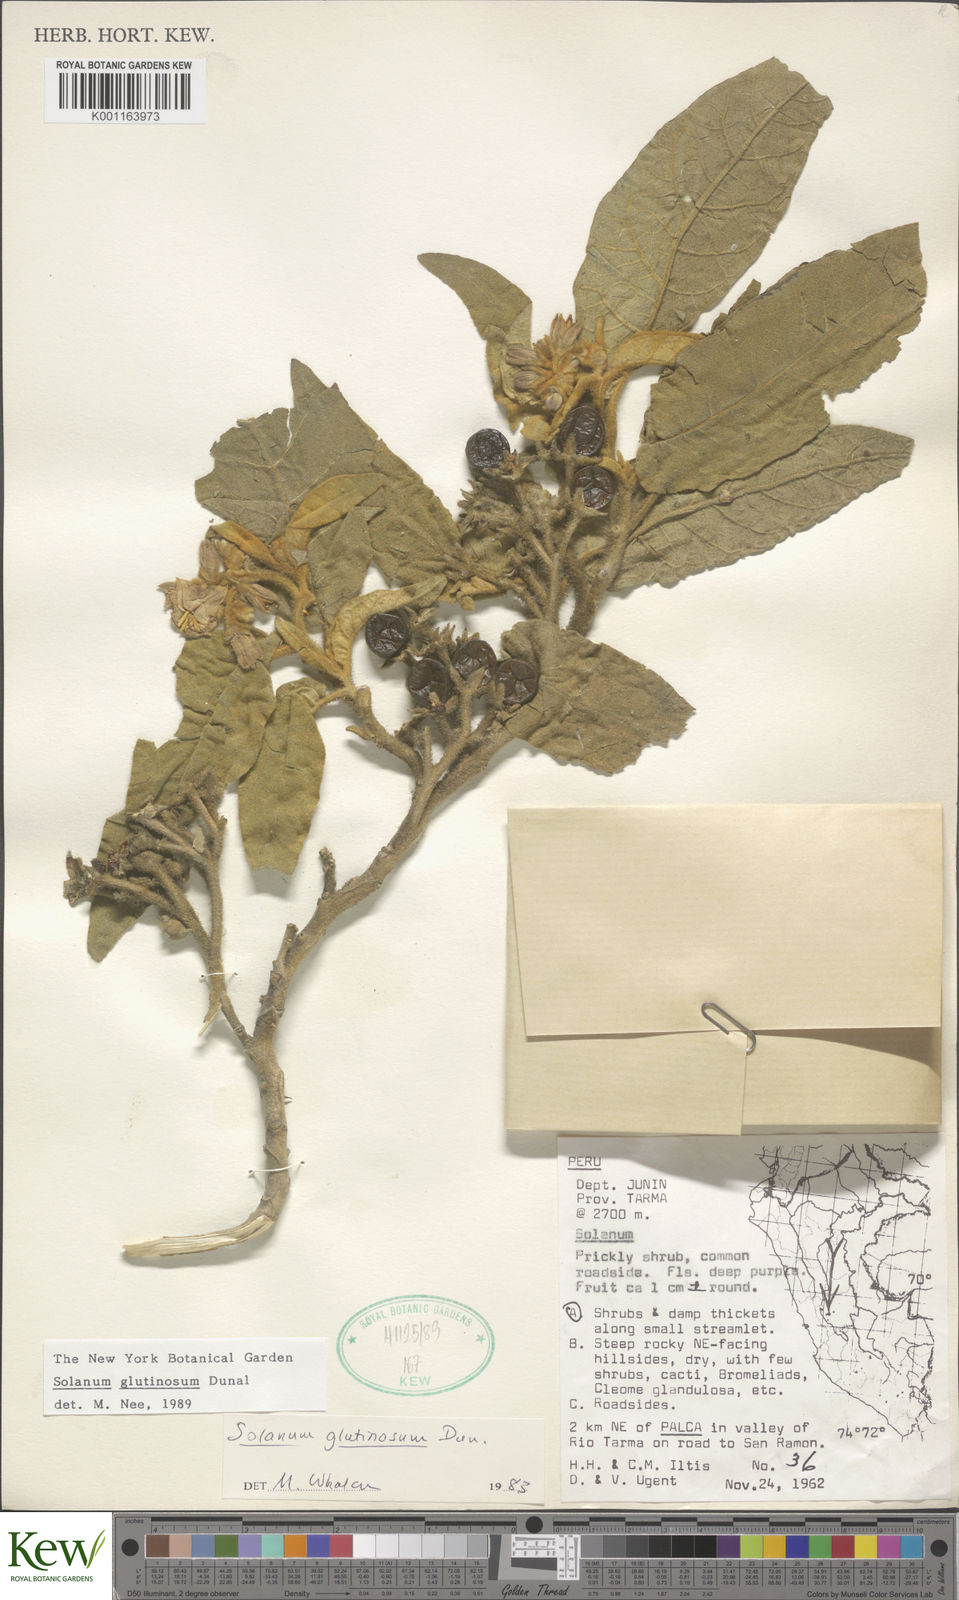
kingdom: Plantae
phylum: Tracheophyta
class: Magnoliopsida
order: Solanales
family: Solanaceae
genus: Solanum
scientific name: Solanum glutinosum
